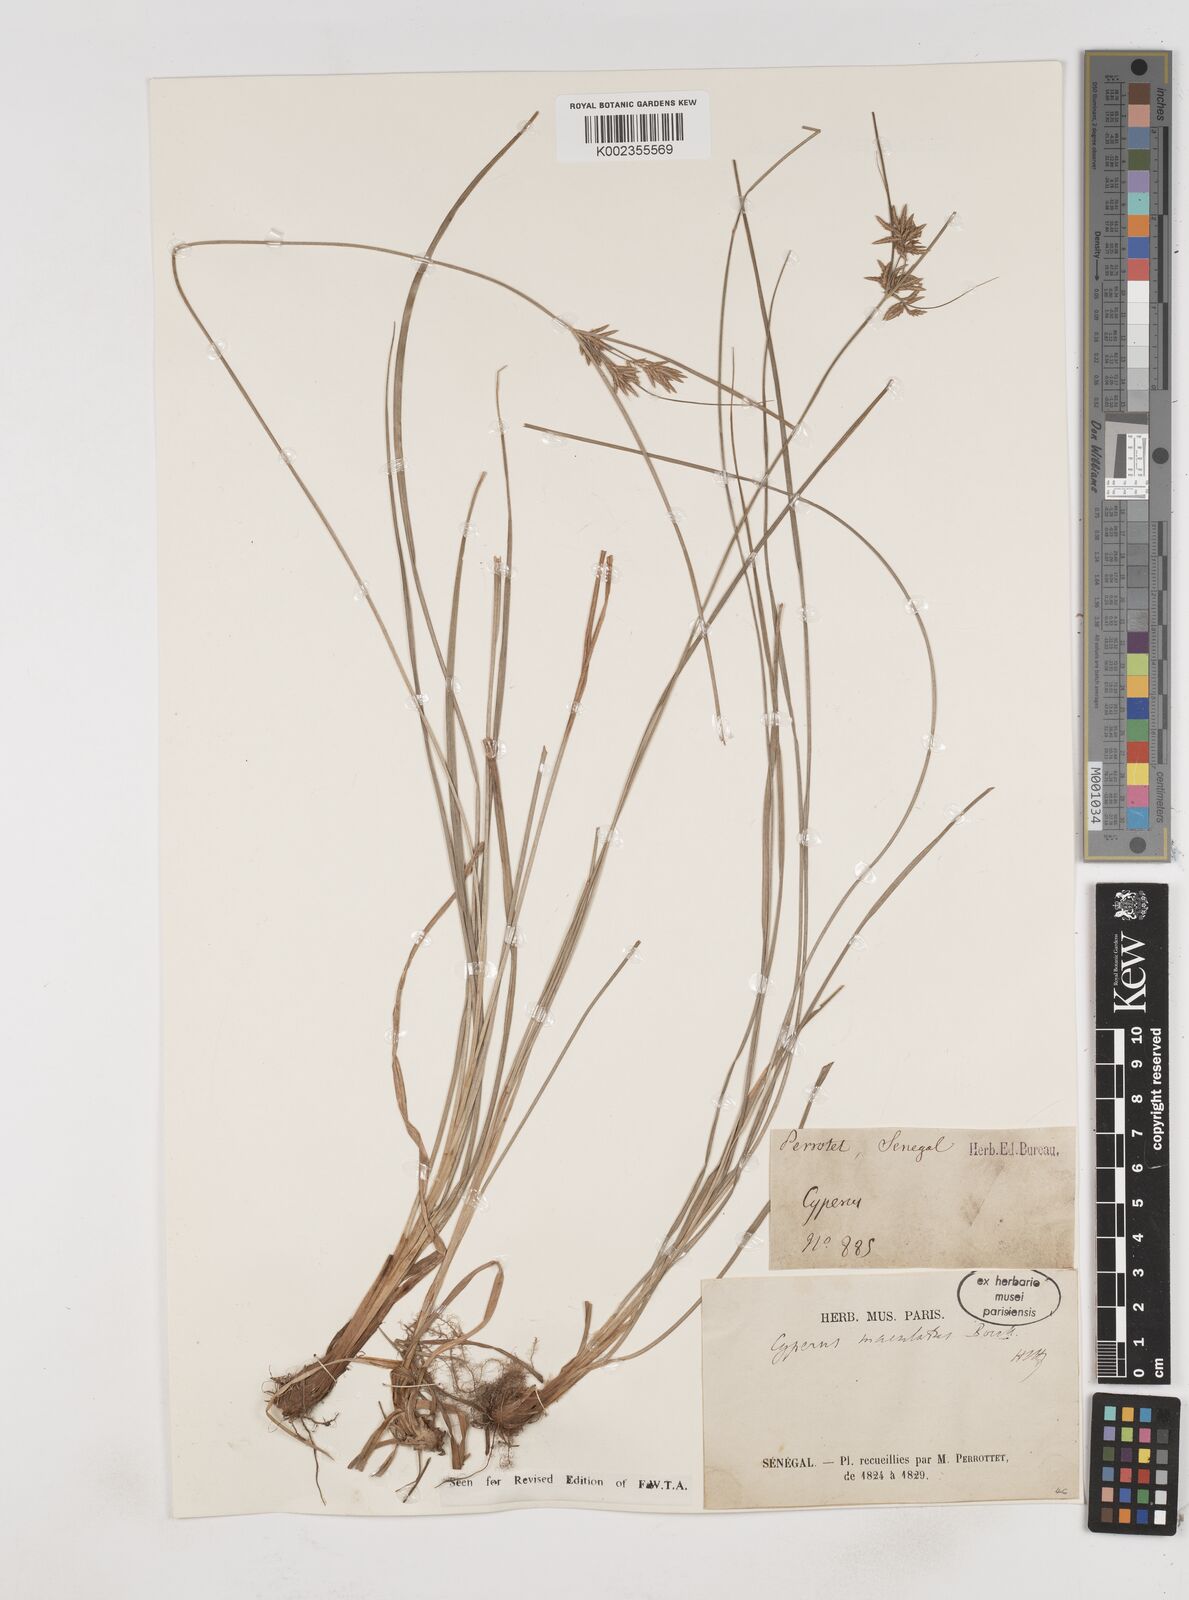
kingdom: Plantae
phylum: Tracheophyta
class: Liliopsida
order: Poales
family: Cyperaceae
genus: Cyperus
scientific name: Cyperus maculatus
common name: Maculated sedge
